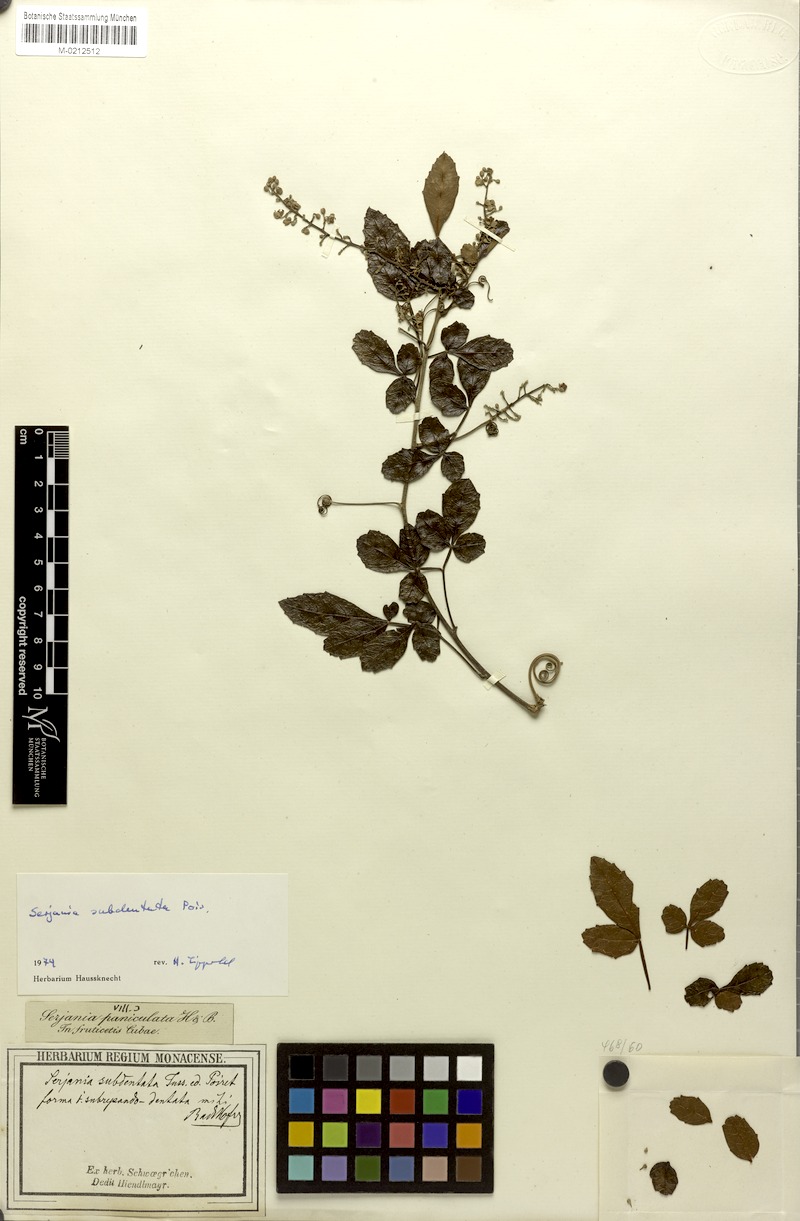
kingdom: Plantae
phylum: Tracheophyta
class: Magnoliopsida
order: Sapindales
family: Sapindaceae
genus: Serjania
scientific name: Serjania subdentata
